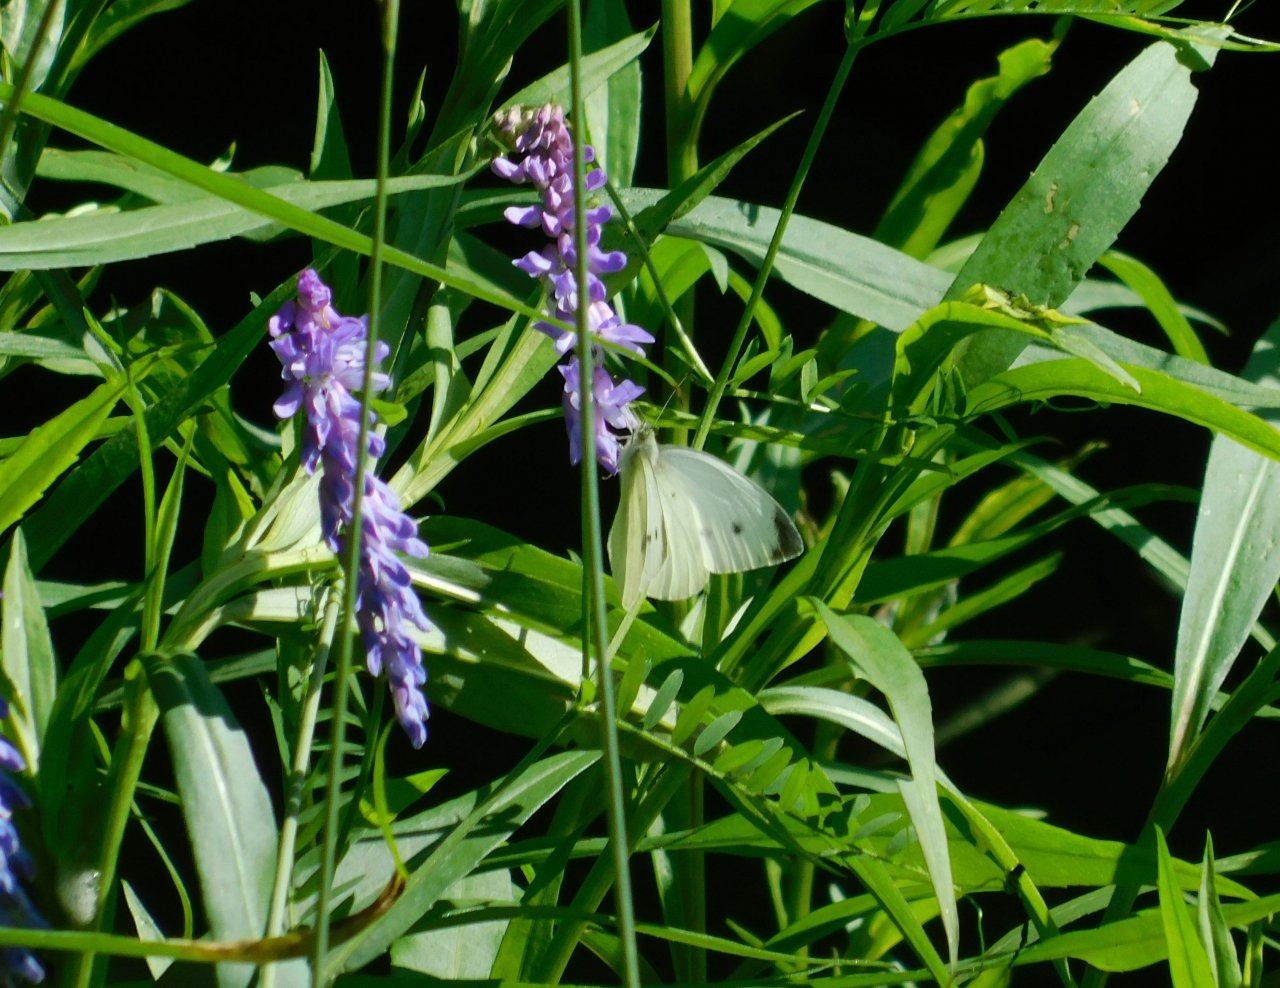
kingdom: Animalia
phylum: Arthropoda
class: Insecta
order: Lepidoptera
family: Pieridae
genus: Pieris
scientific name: Pieris rapae
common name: Cabbage White
